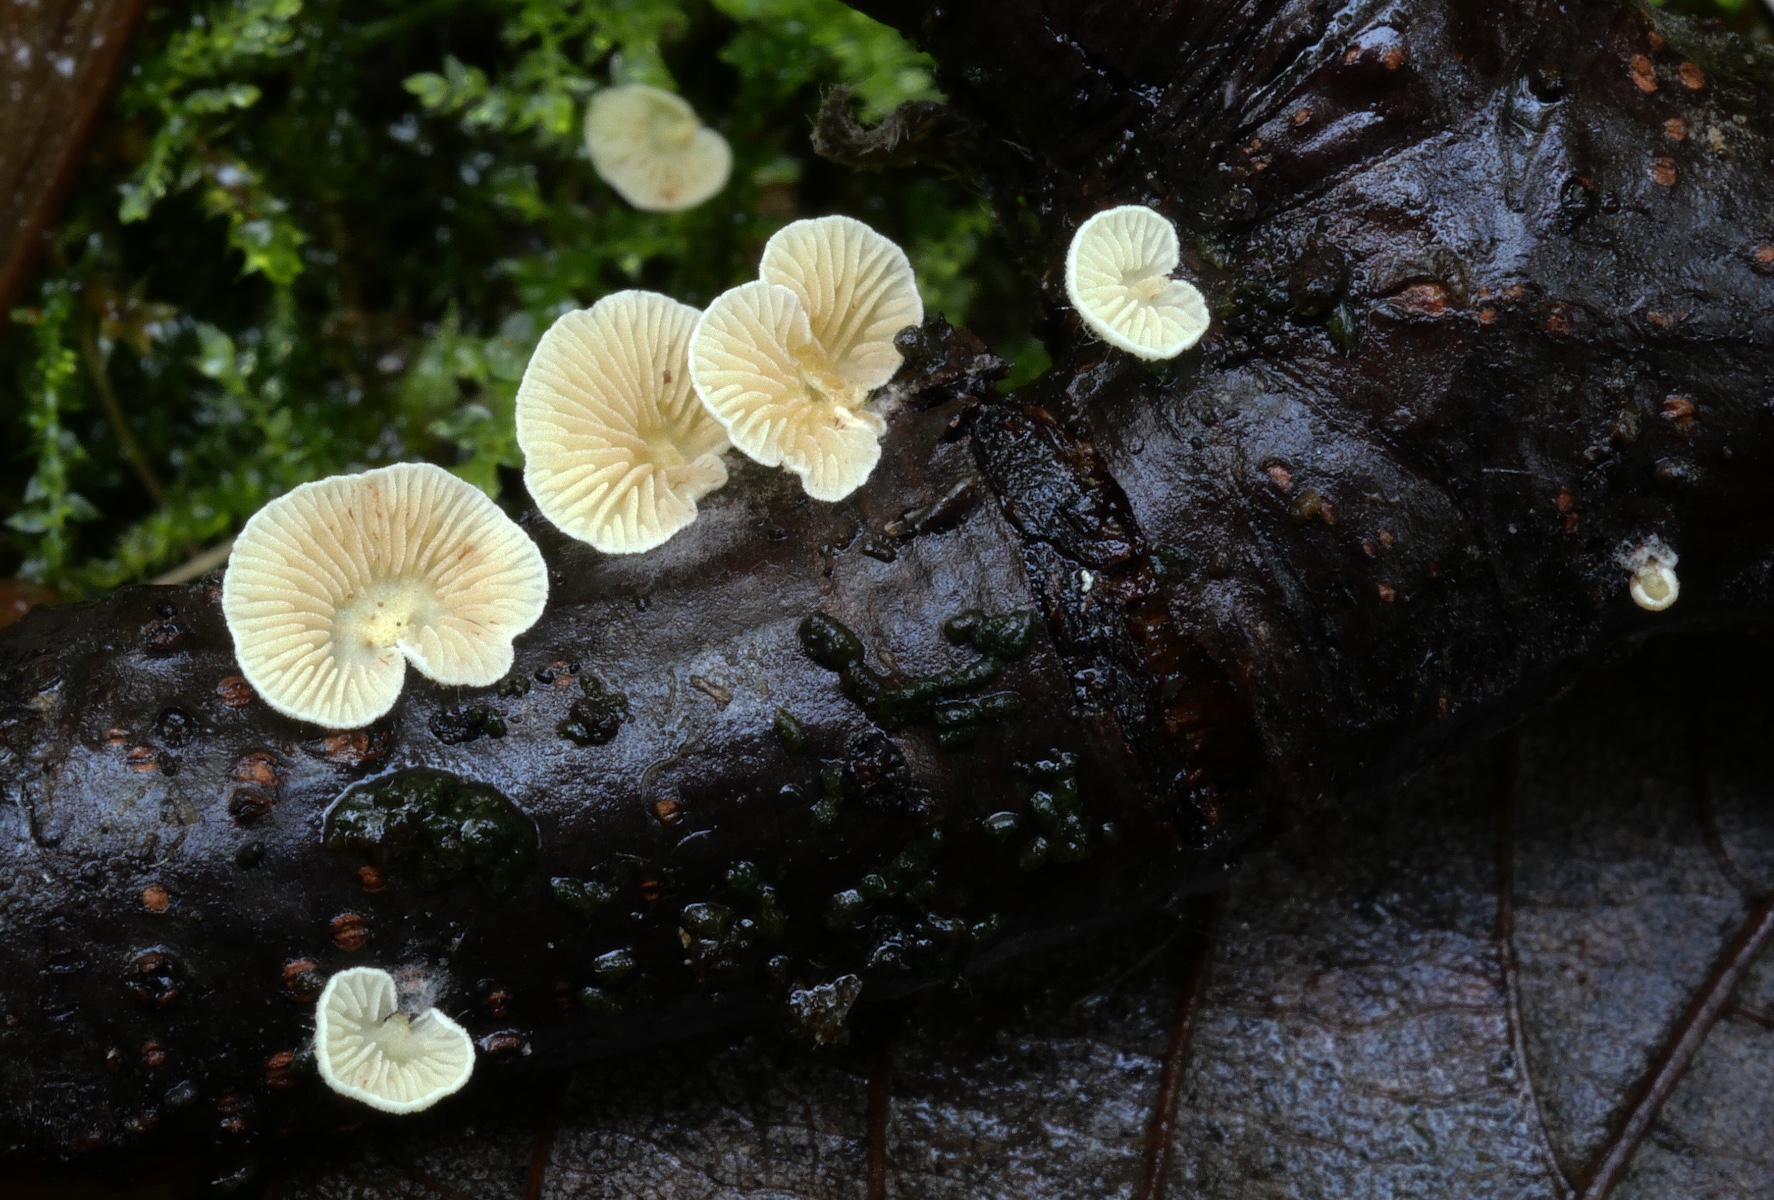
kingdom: Fungi
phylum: Basidiomycota
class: Agaricomycetes
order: Agaricales
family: Crepidotaceae
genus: Crepidotus
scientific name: Crepidotus carpaticus
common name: bredsået muslingesvamp
